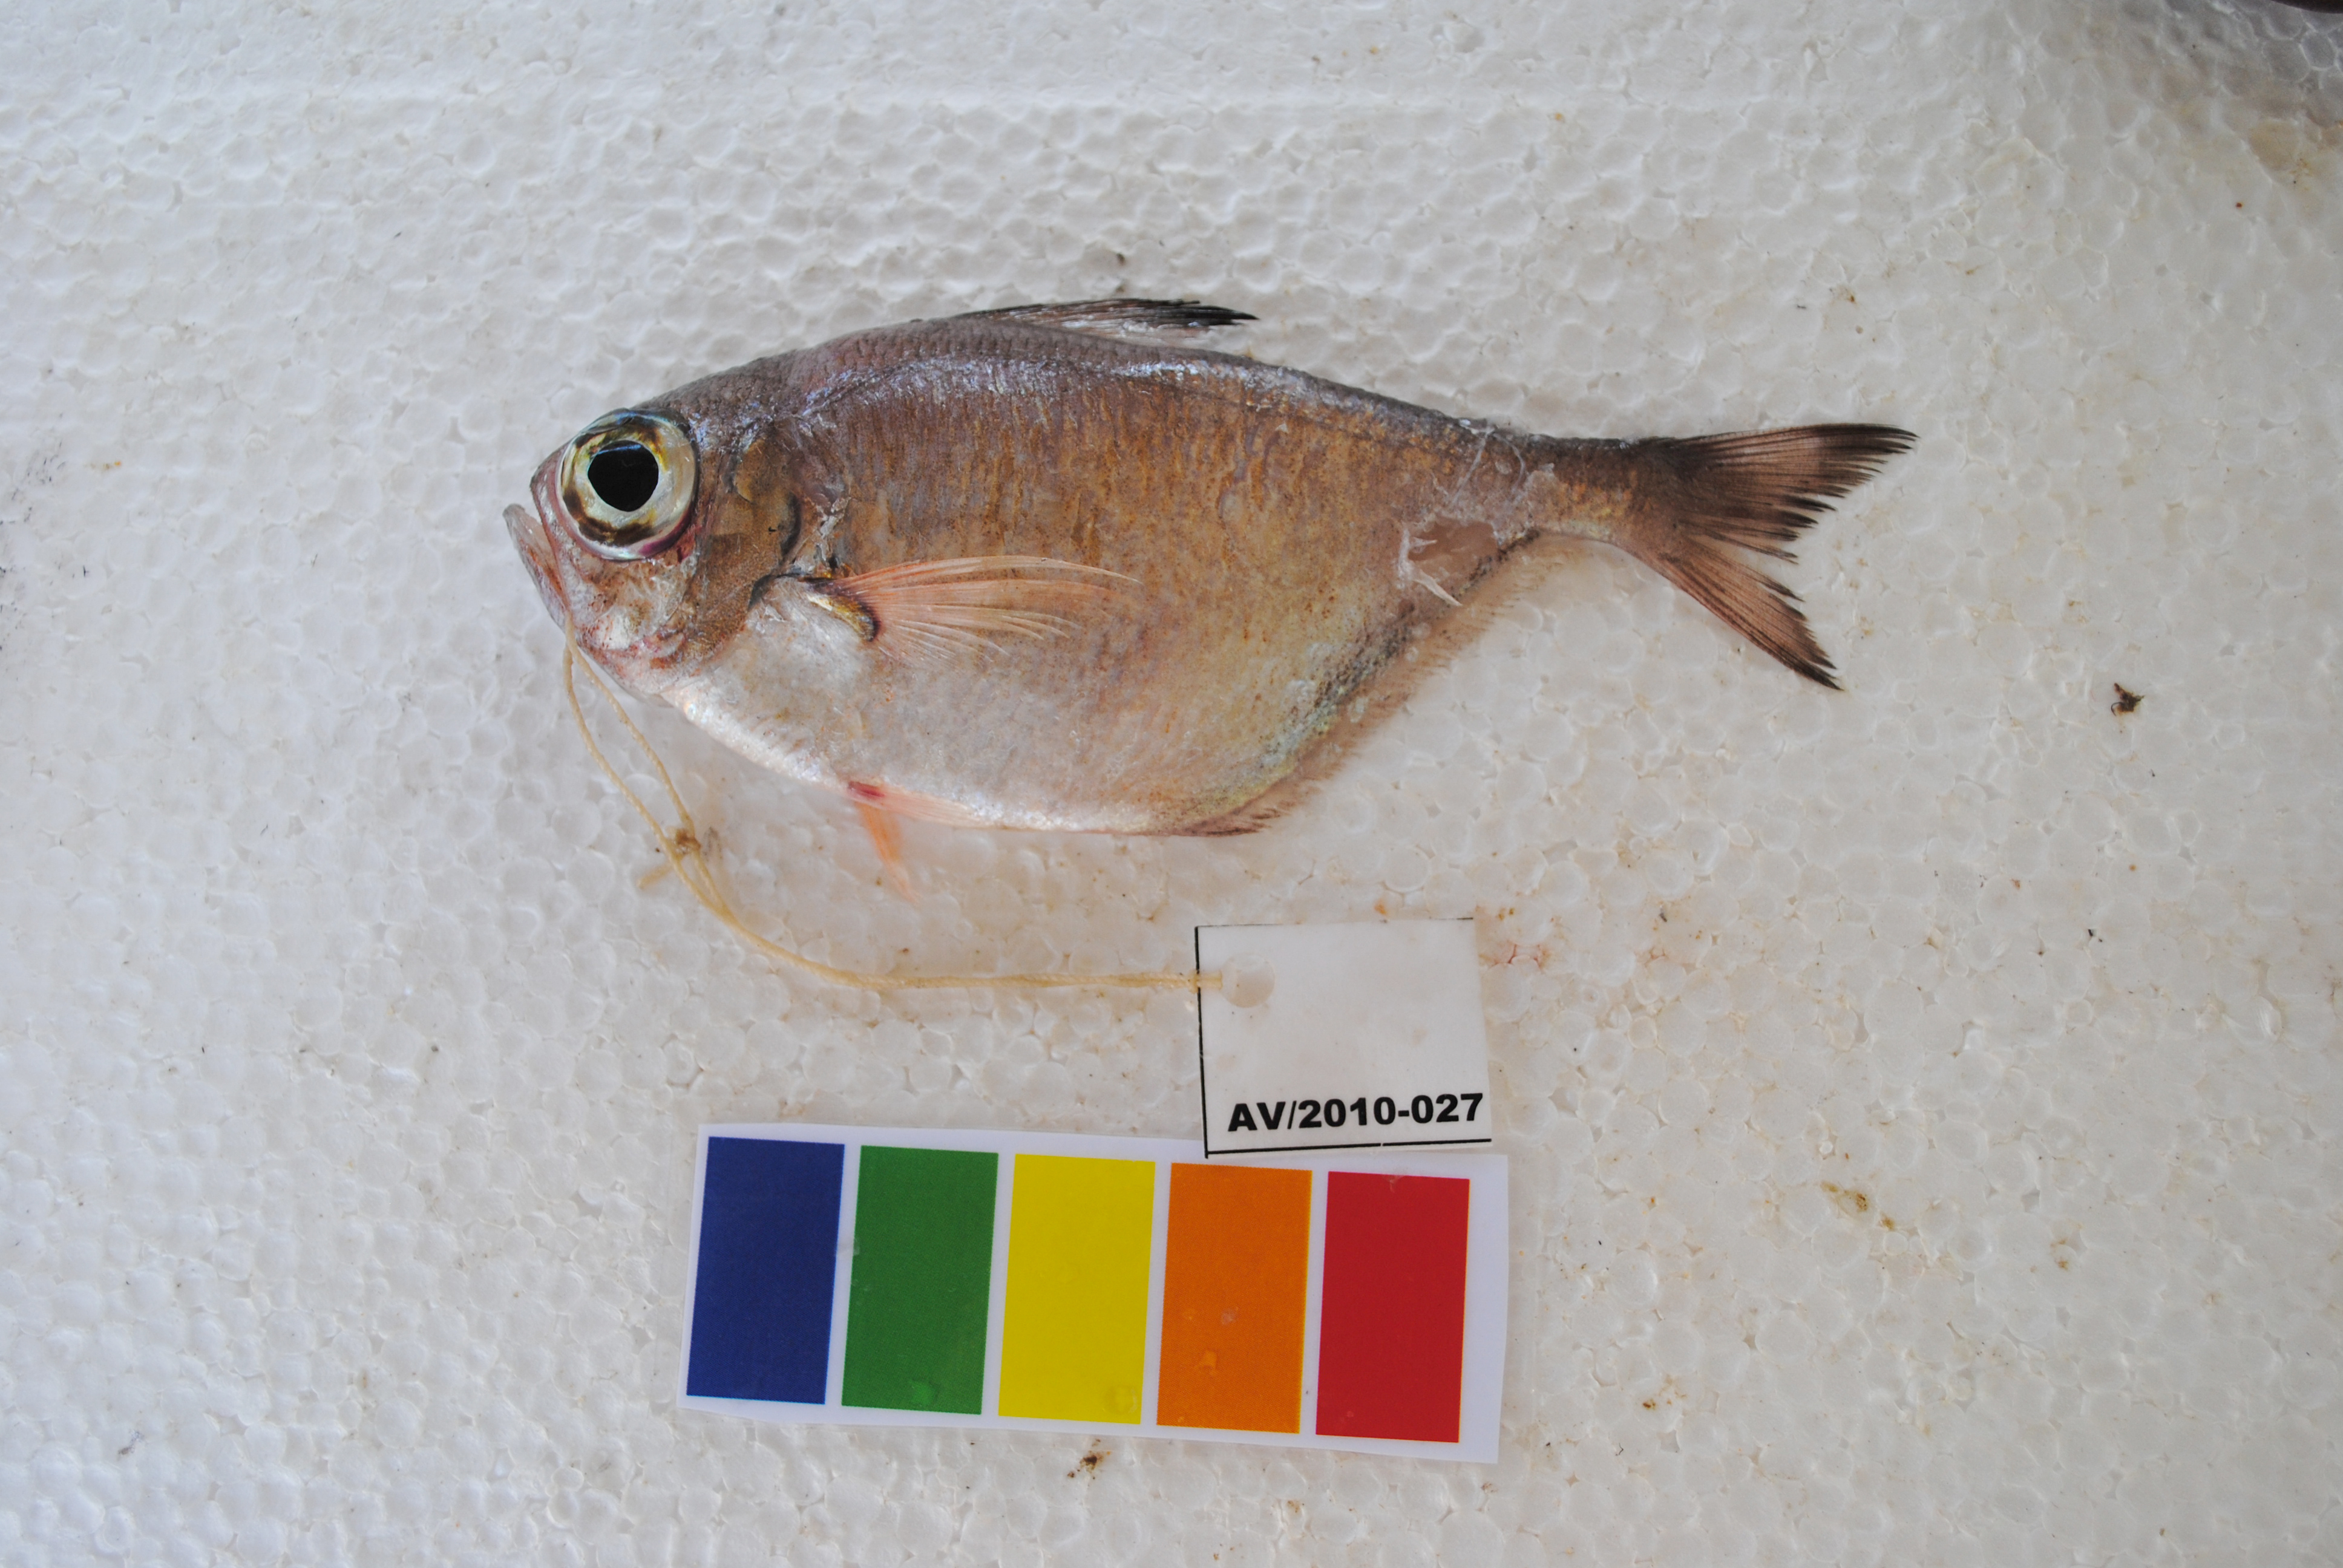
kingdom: Animalia
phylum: Chordata
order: Perciformes
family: Pempheridae
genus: Pempheris
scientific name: Pempheris tominagai
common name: Black-stripe sweeper
